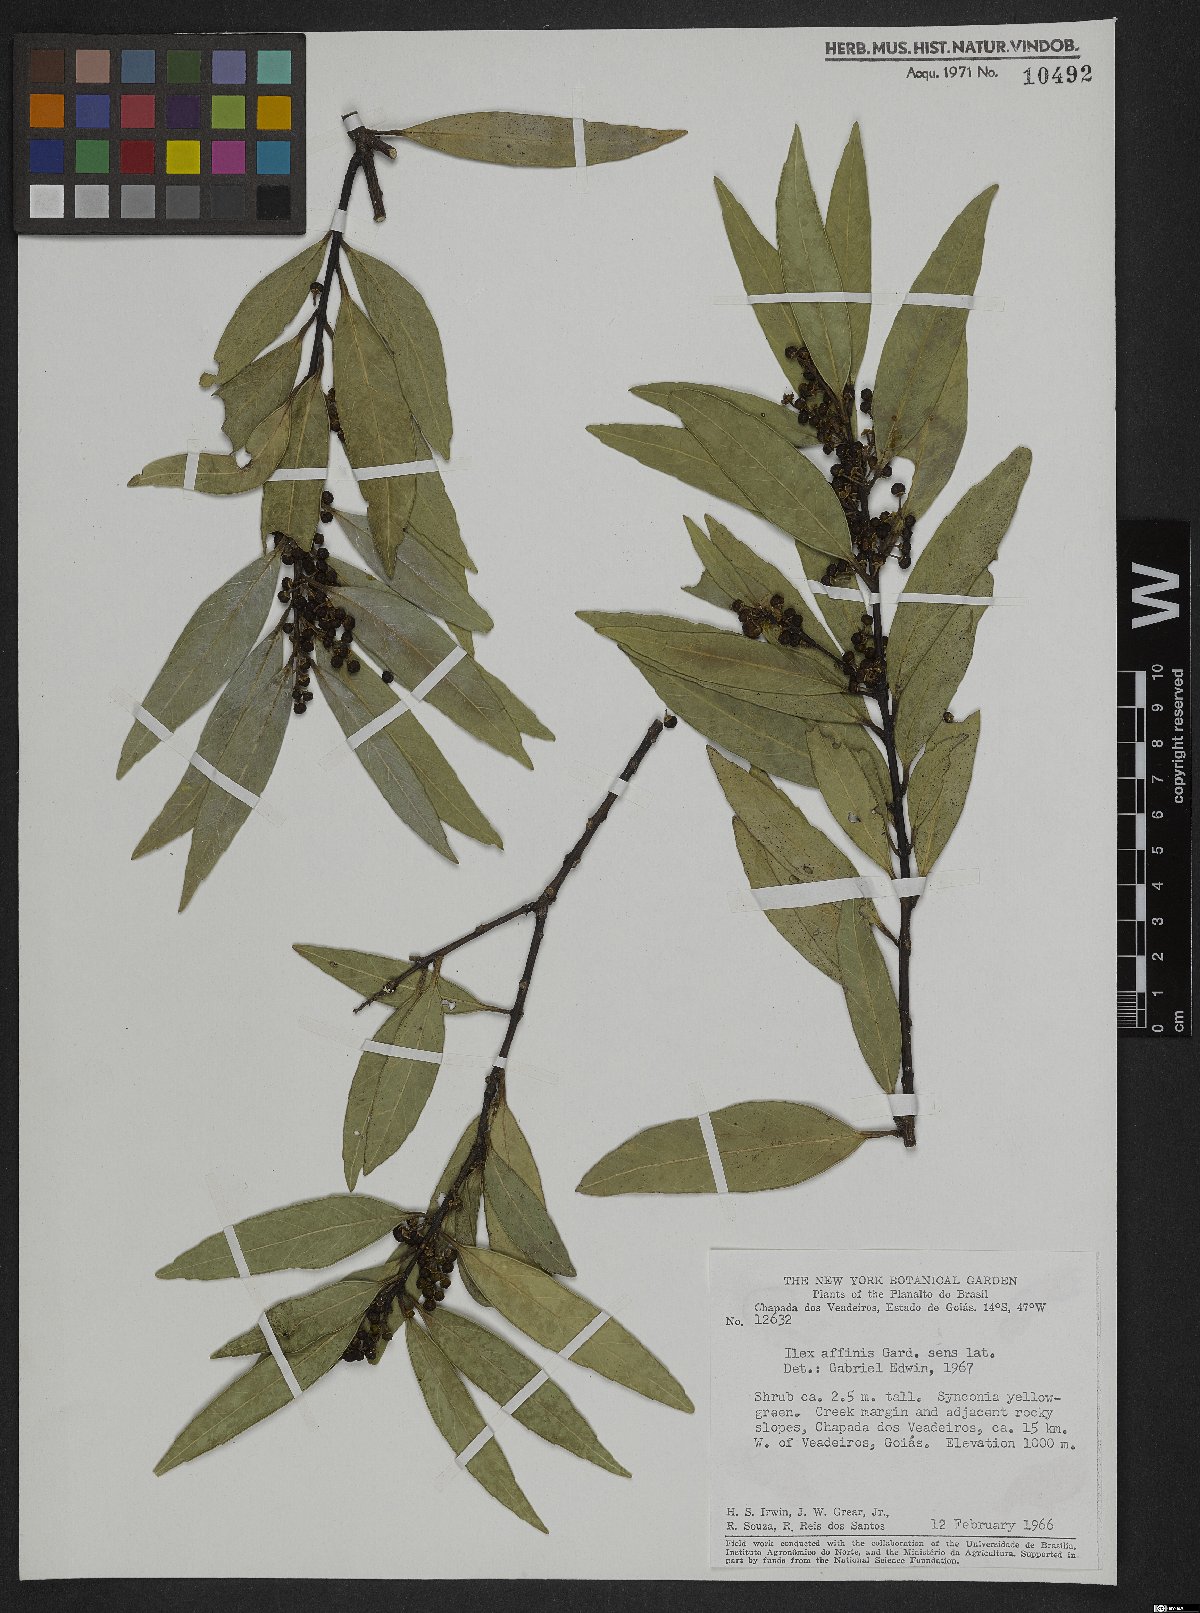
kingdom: Plantae
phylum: Tracheophyta
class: Magnoliopsida
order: Aquifoliales
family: Aquifoliaceae
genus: Ilex
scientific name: Ilex affinis
